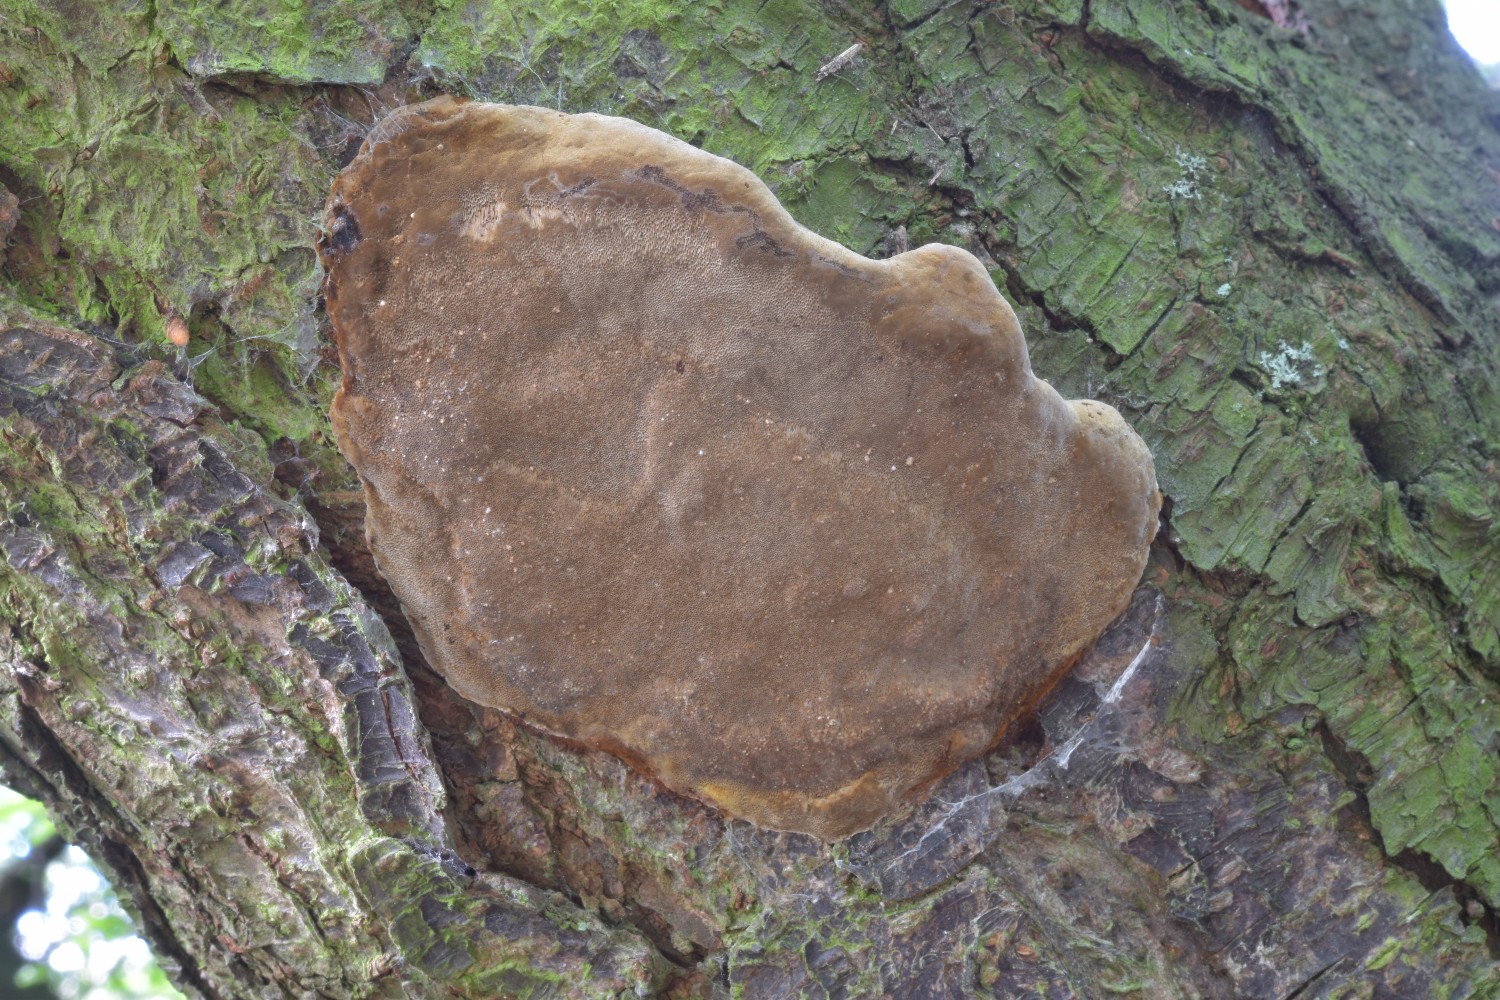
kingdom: Fungi
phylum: Basidiomycota
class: Agaricomycetes
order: Hymenochaetales
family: Hymenochaetaceae
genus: Phellinus
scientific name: Phellinus pomaceus
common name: blomme-ildporesvamp
